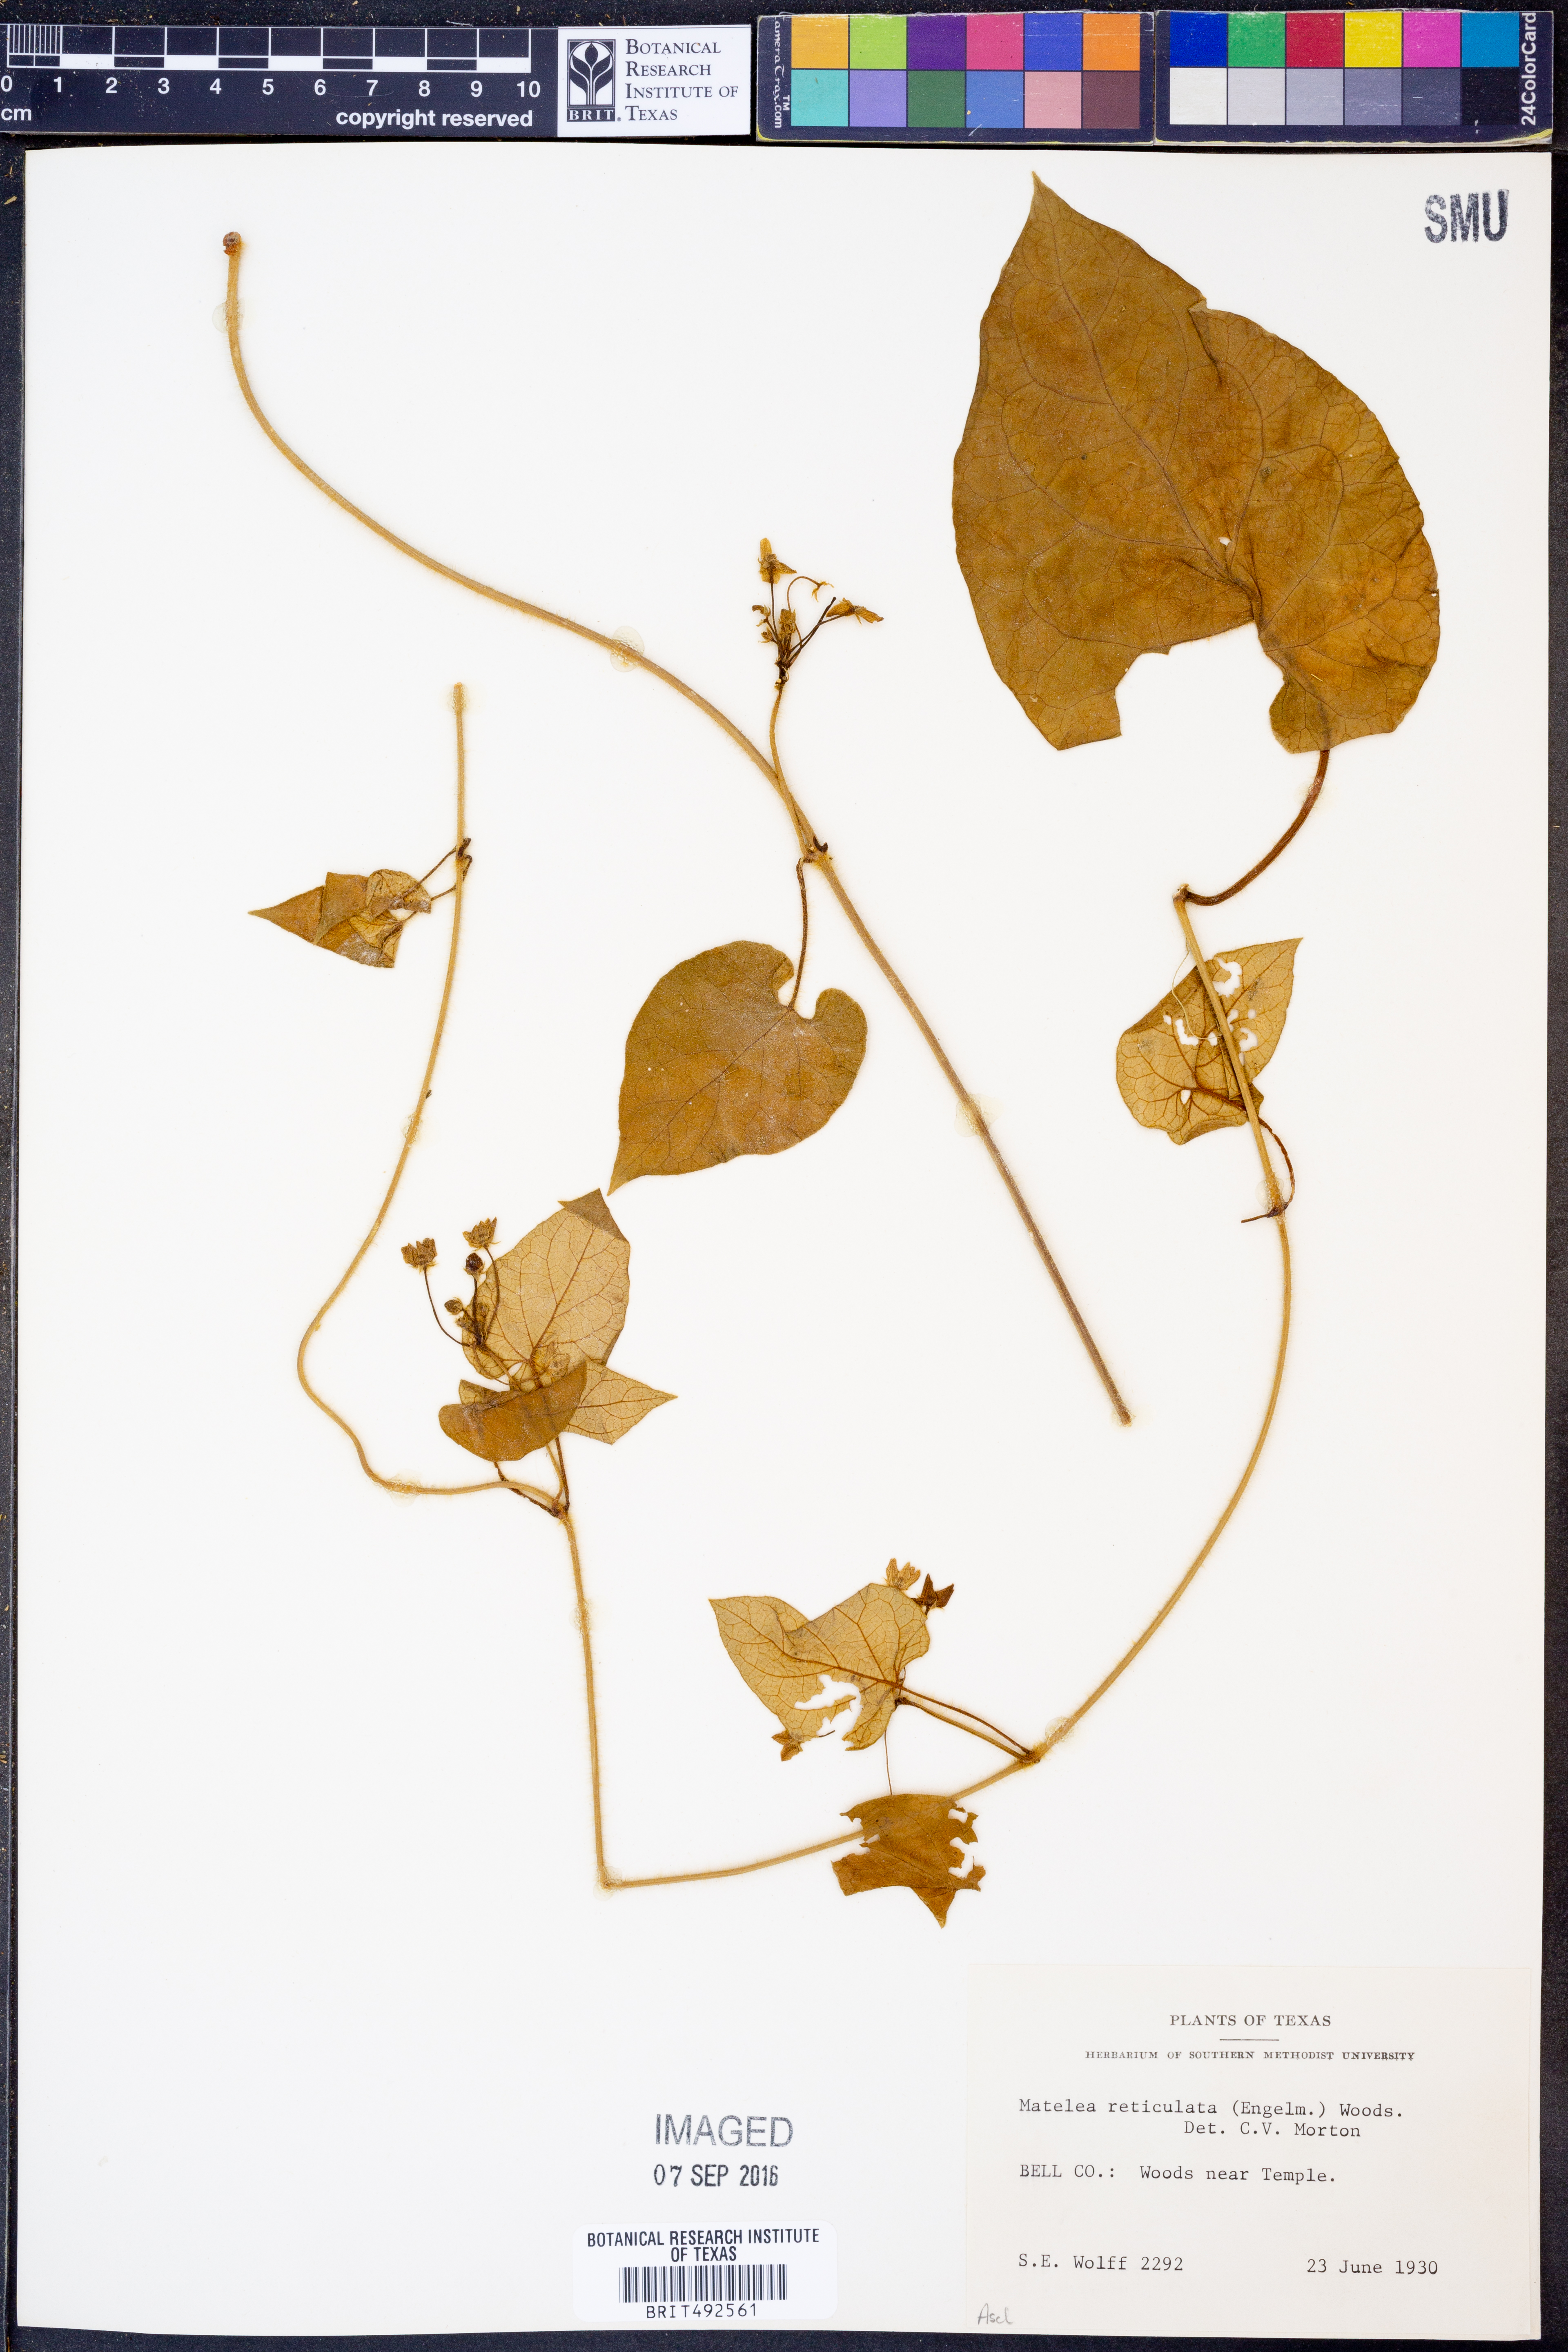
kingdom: Plantae
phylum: Tracheophyta
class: Magnoliopsida
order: Gentianales
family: Apocynaceae
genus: Dictyanthus
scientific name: Dictyanthus reticulatus
